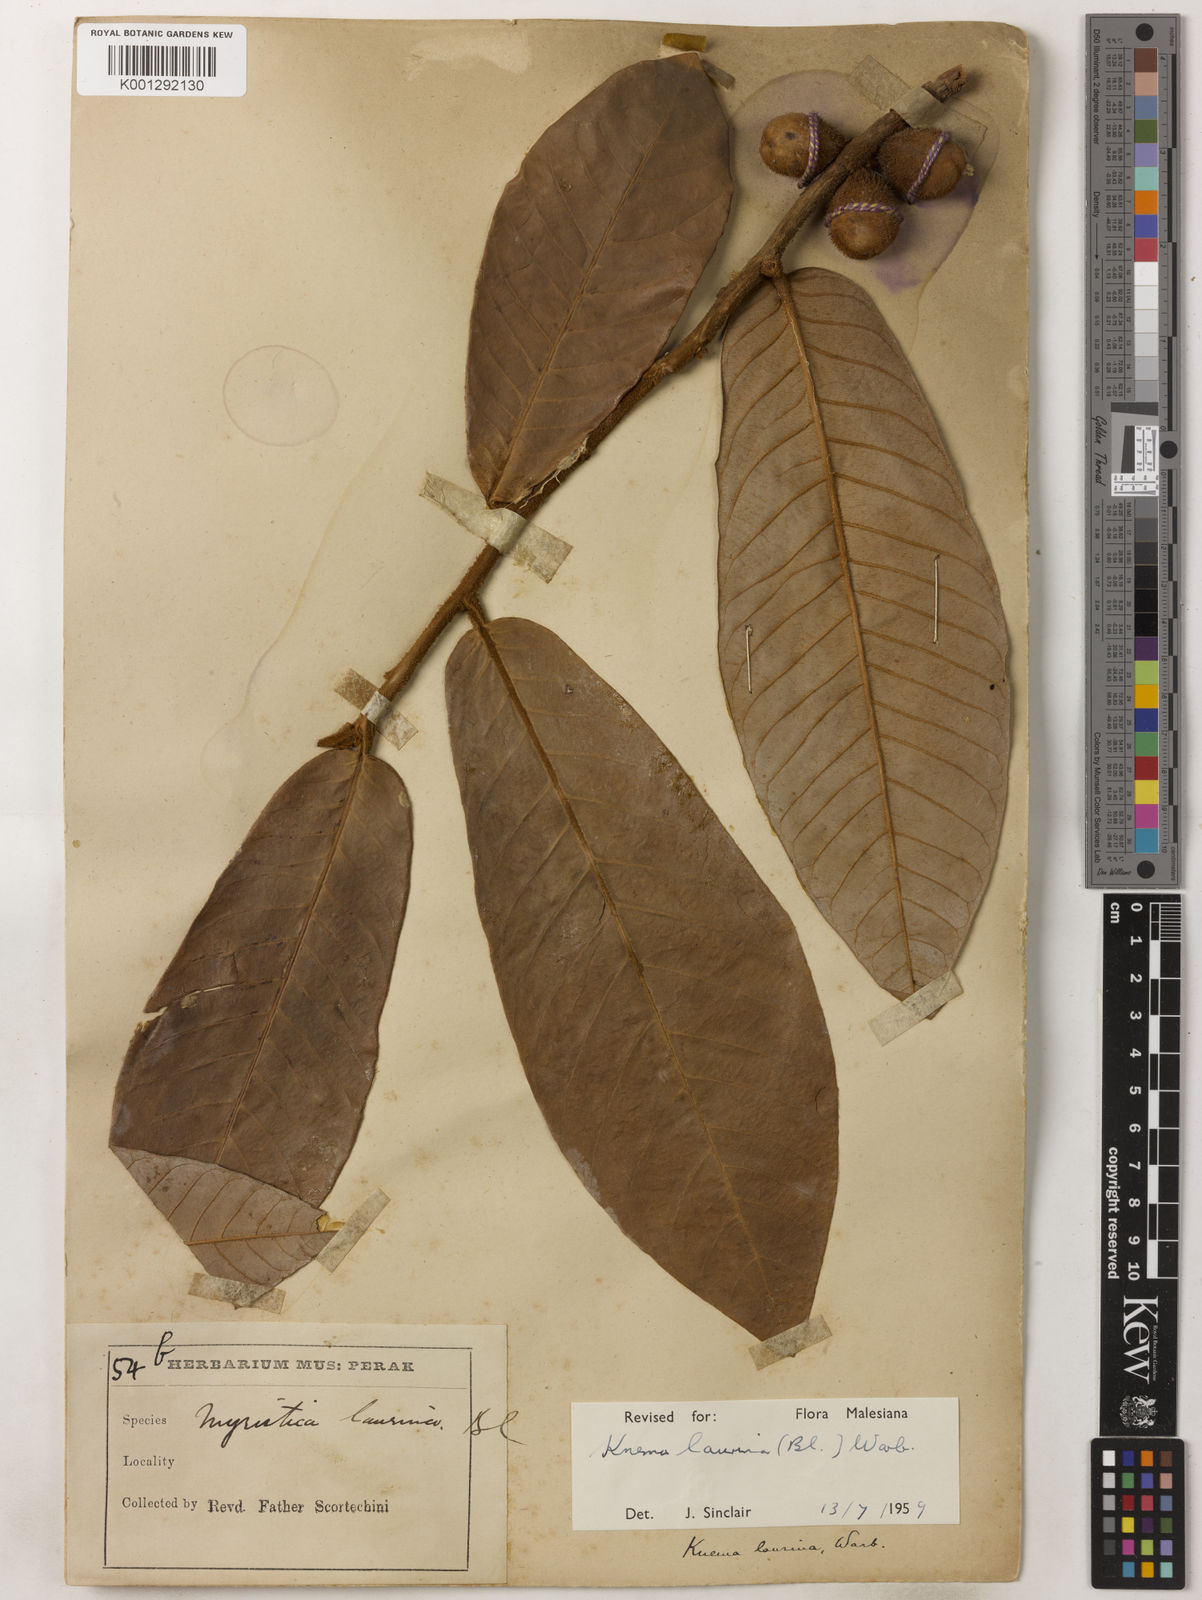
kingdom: Plantae
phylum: Tracheophyta
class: Magnoliopsida
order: Magnoliales
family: Myristicaceae
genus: Knema
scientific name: Knema laurina
